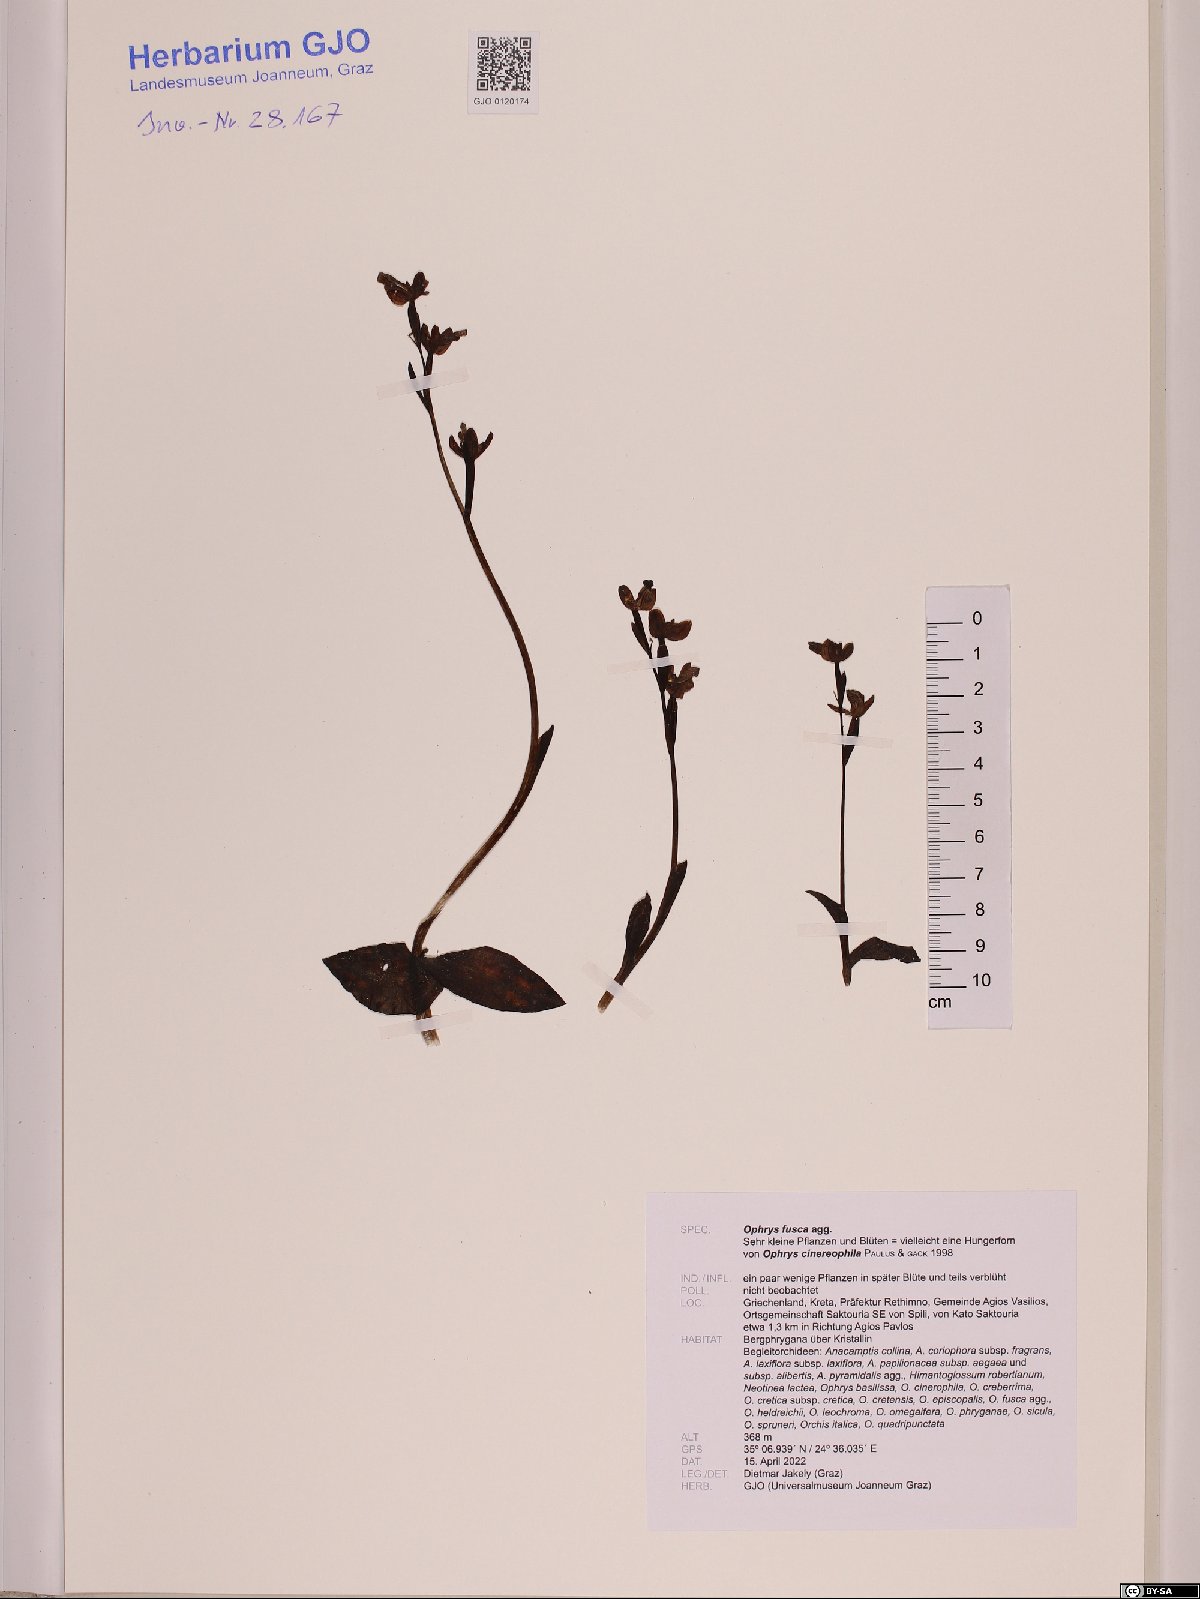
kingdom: Plantae
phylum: Tracheophyta
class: Liliopsida
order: Asparagales
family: Orchidaceae
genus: Ophrys
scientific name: Ophrys fusca
